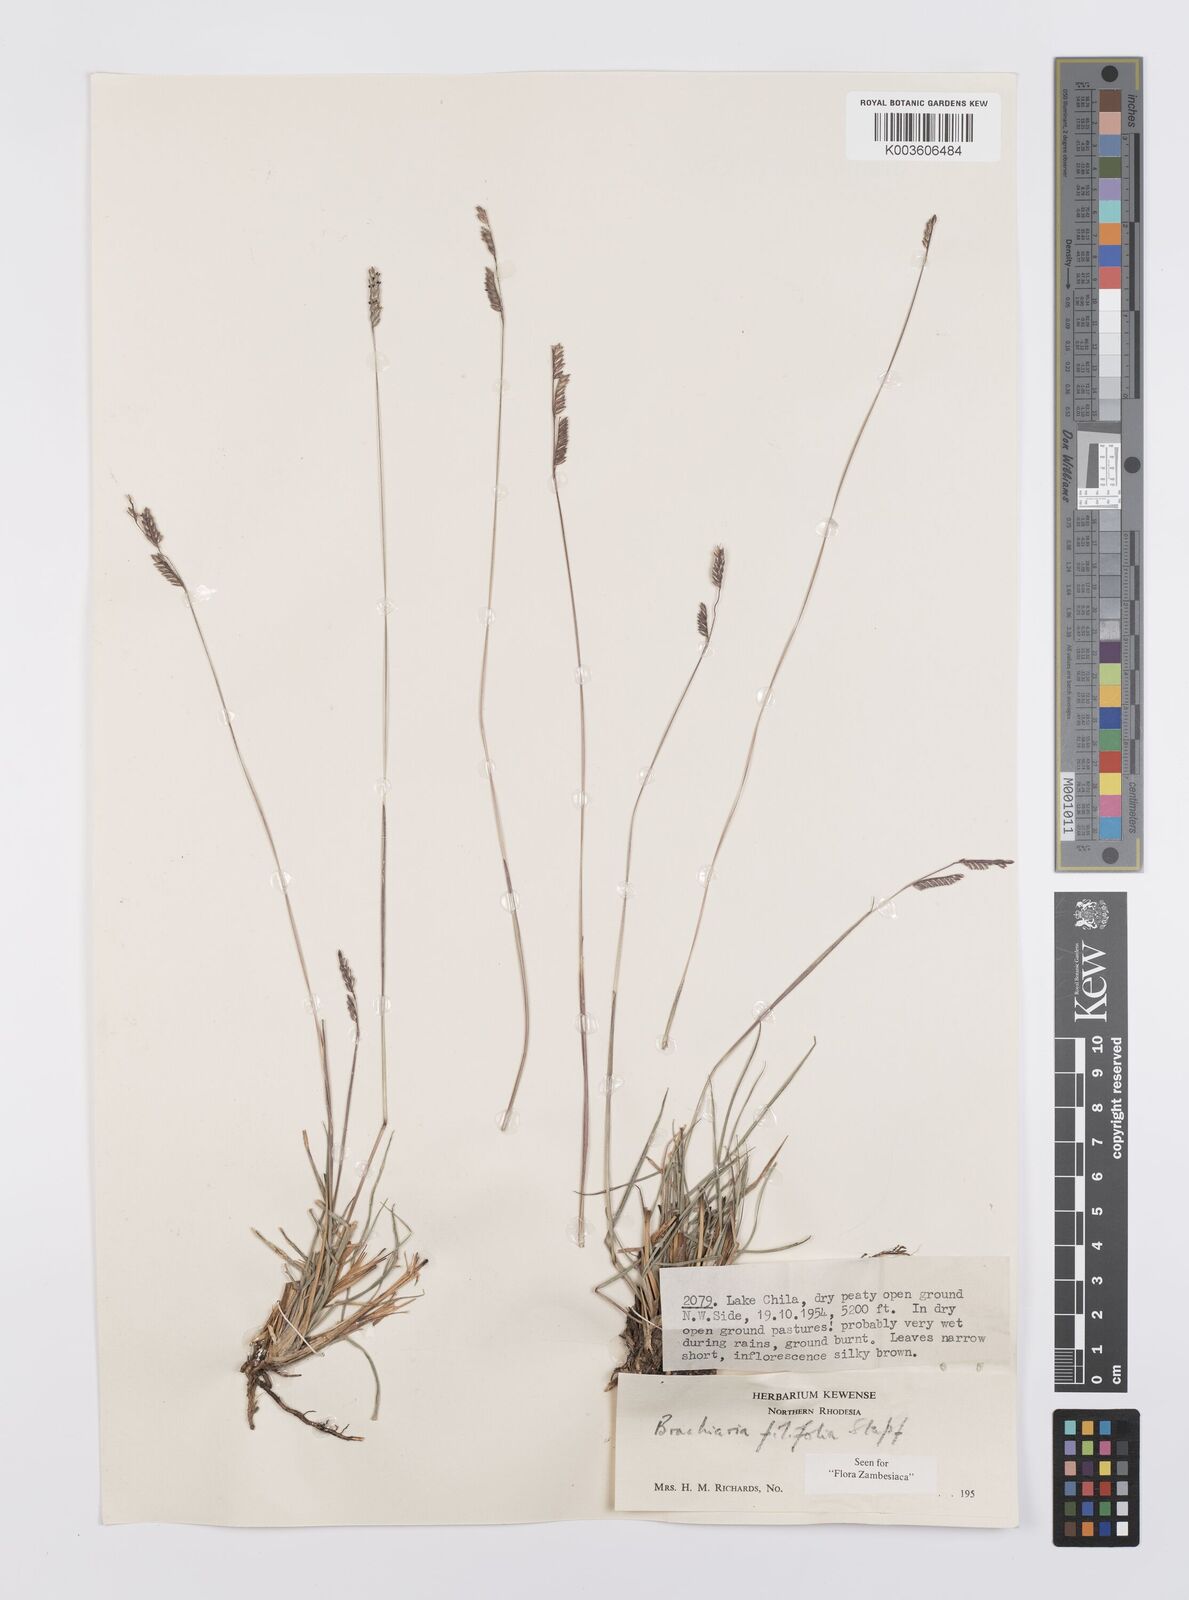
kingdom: Plantae
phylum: Tracheophyta
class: Liliopsida
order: Poales
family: Poaceae
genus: Urochloa
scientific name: Urochloa subulifolia
